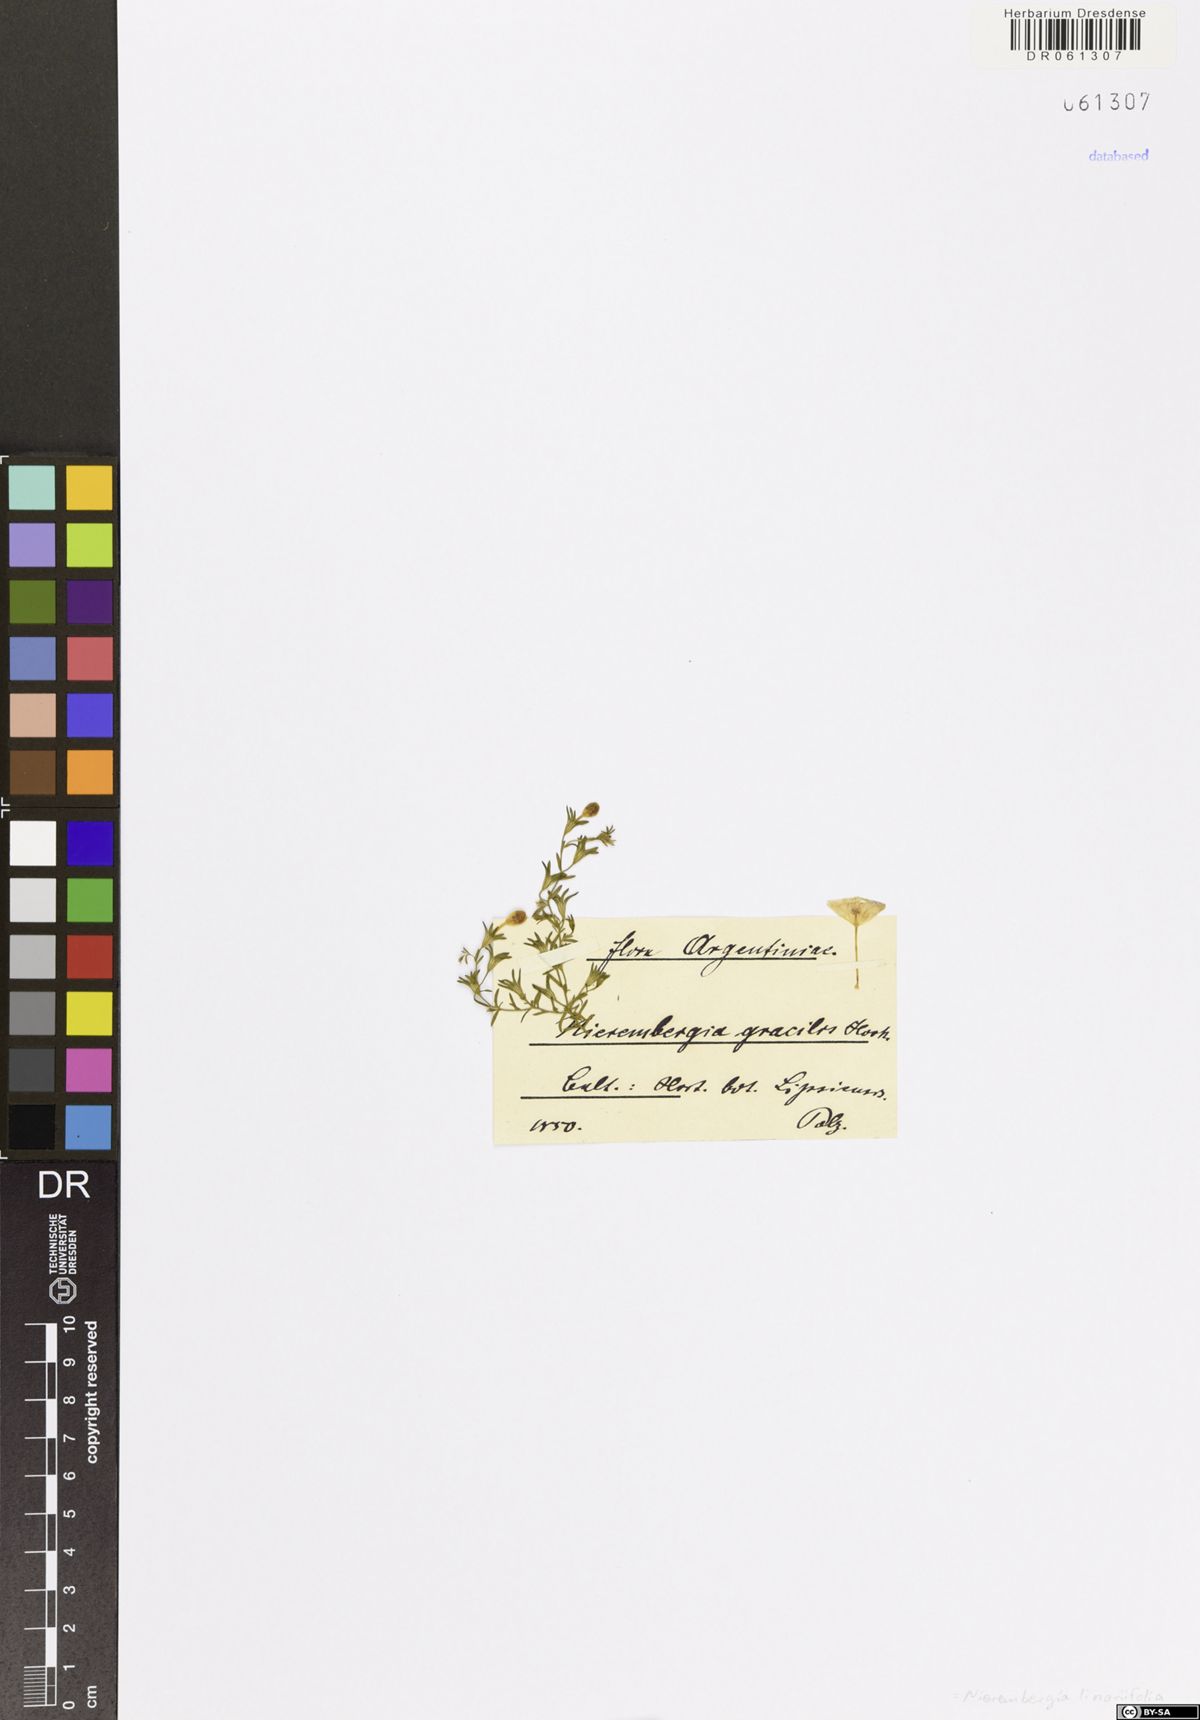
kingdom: Plantae
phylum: Tracheophyta
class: Magnoliopsida
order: Solanales
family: Solanaceae
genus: Nierembergia
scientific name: Nierembergia linariifolia
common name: Dwarf cupflower
